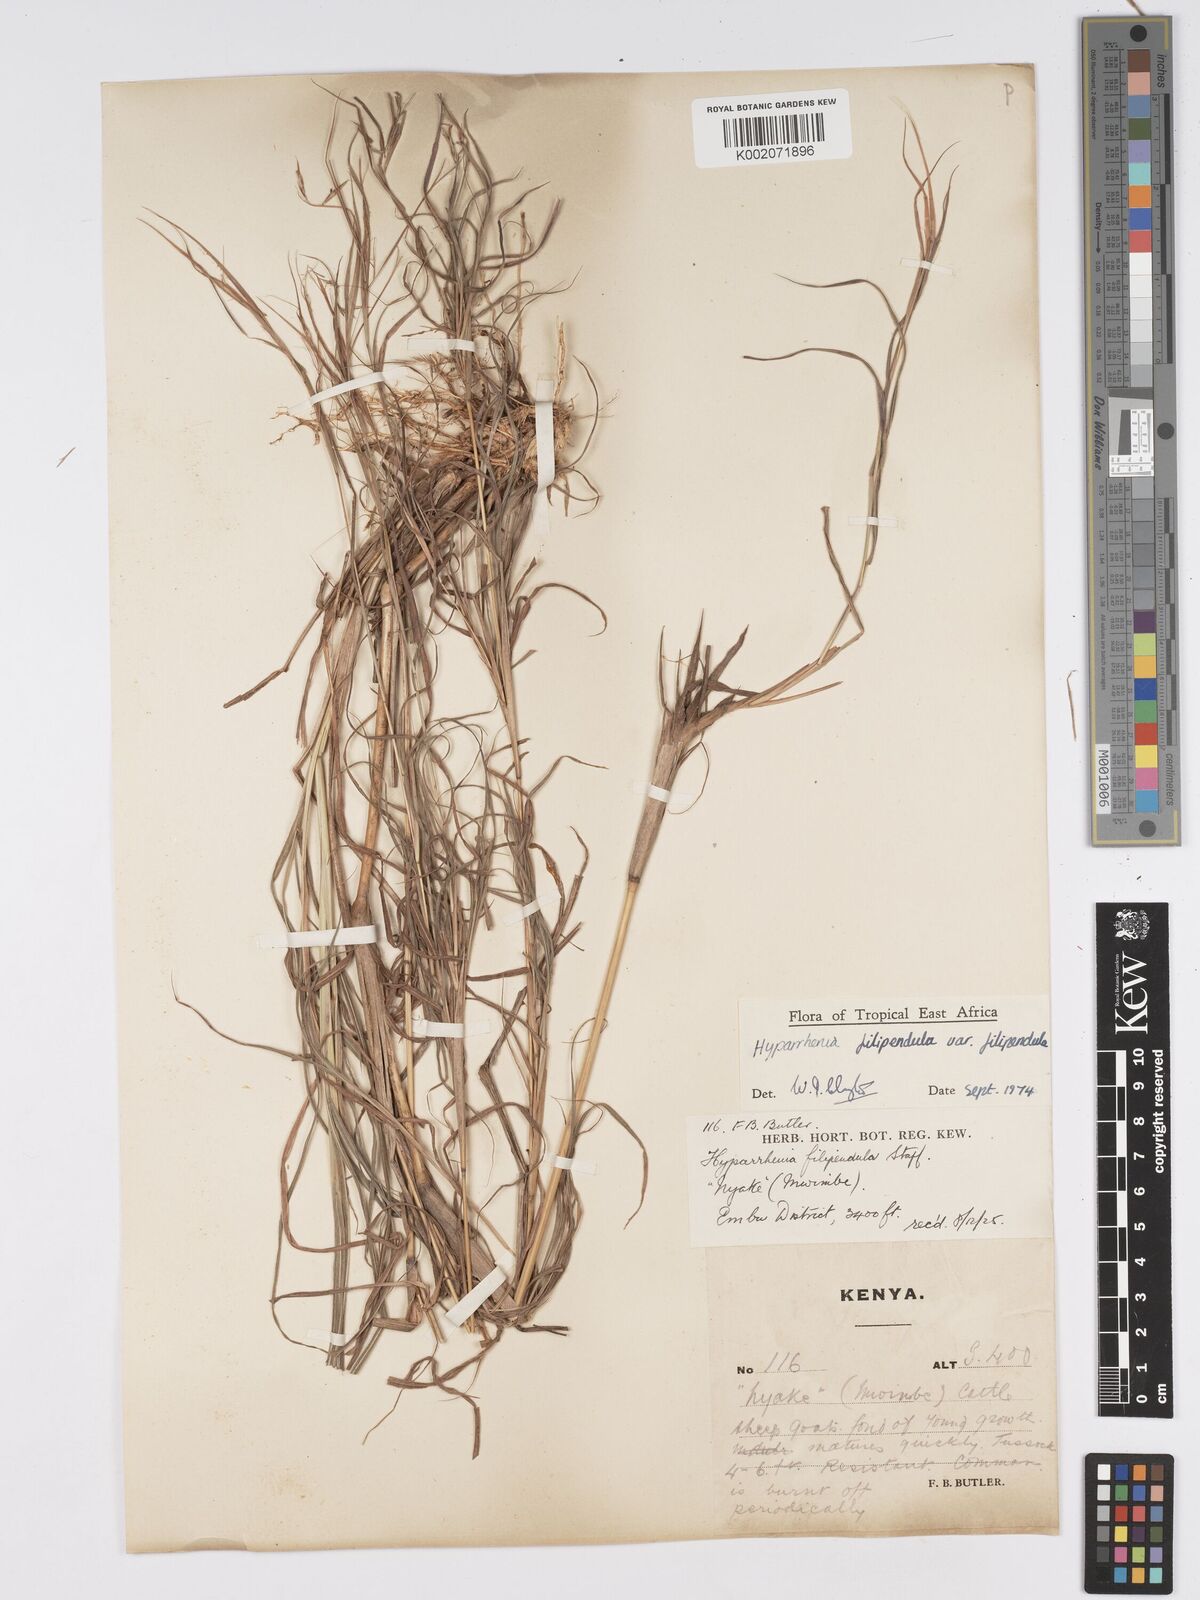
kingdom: Plantae
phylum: Tracheophyta
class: Liliopsida
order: Poales
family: Poaceae
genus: Hyparrhenia
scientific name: Hyparrhenia filipendula
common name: Tambookie grass
